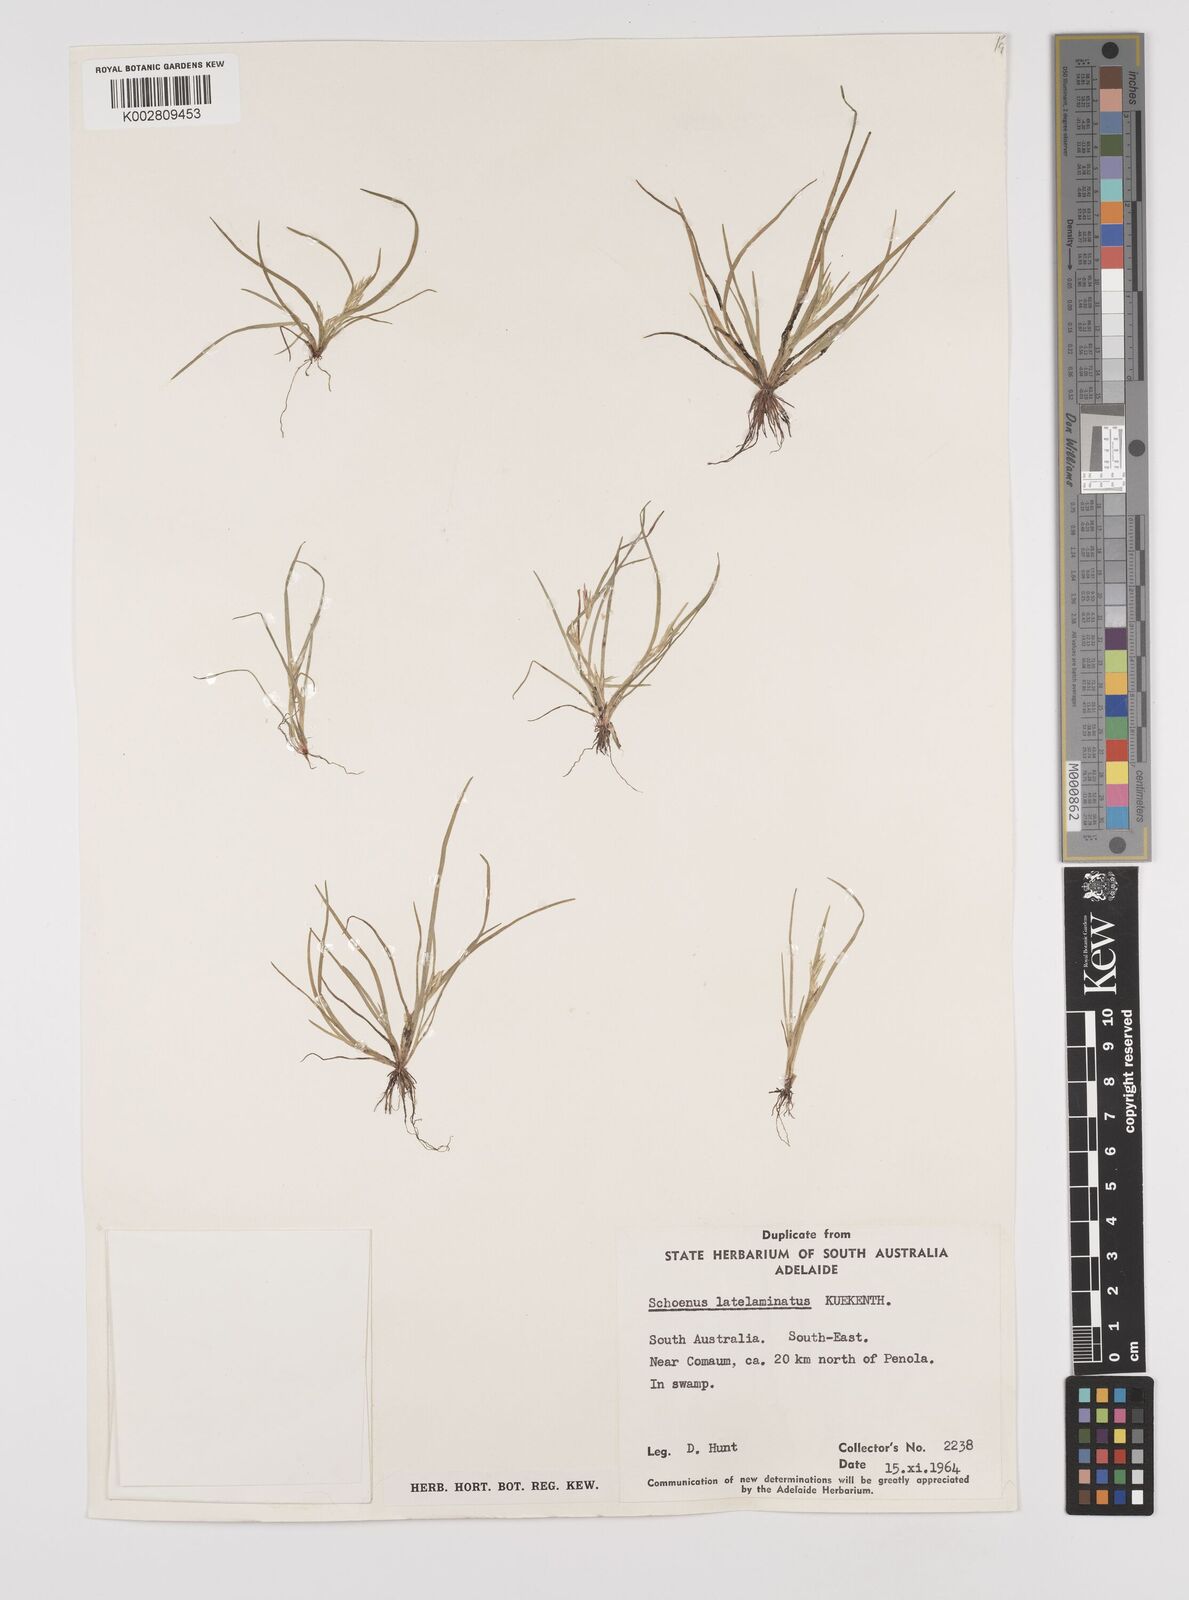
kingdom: Plantae
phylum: Tracheophyta
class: Liliopsida
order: Poales
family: Cyperaceae
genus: Schoenus
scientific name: Schoenus latelaminatus
